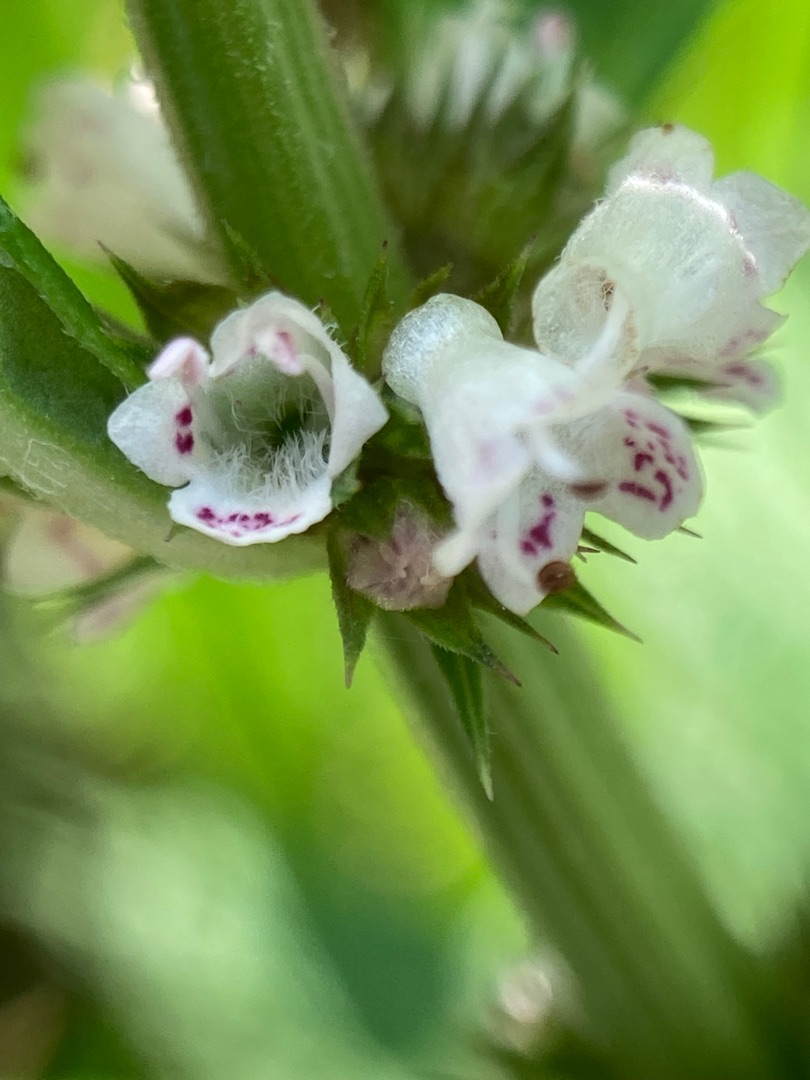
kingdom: Plantae
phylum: Tracheophyta
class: Magnoliopsida
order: Lamiales
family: Lamiaceae
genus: Lycopus
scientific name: Lycopus europaeus
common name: Sværtevæld
